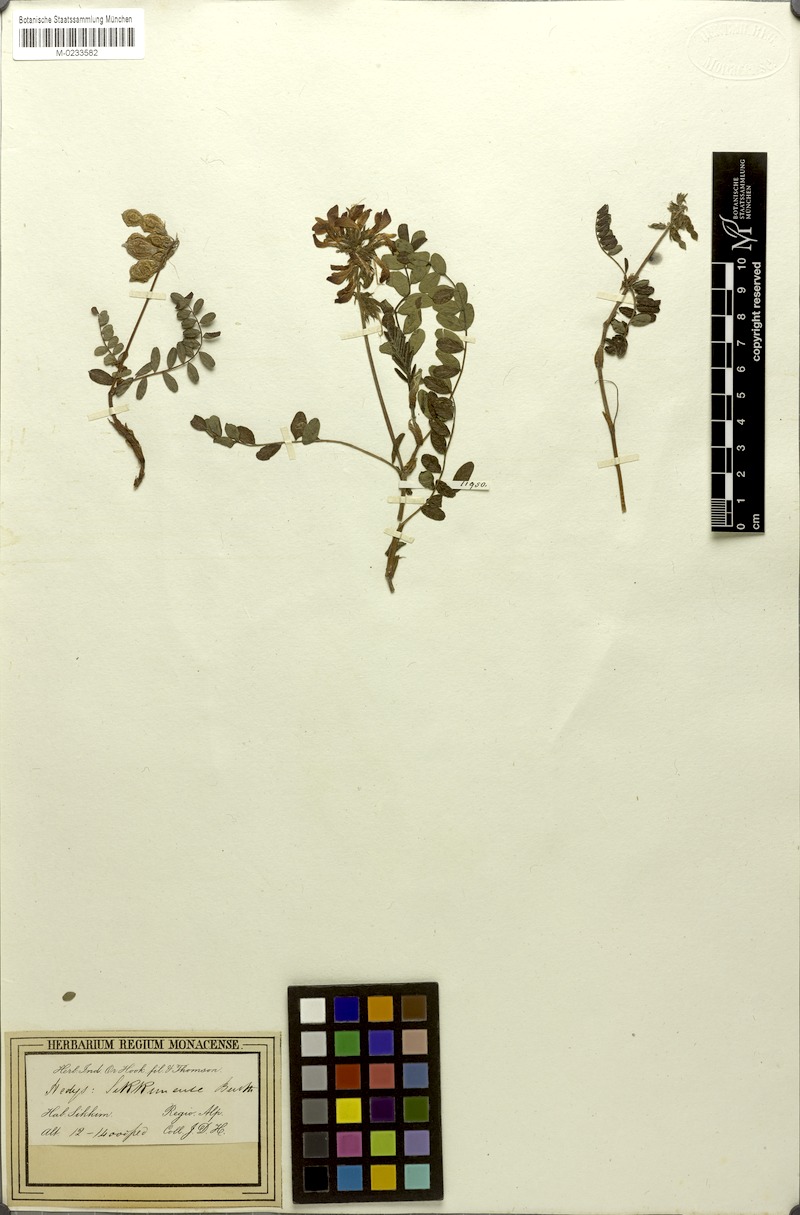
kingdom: Plantae
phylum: Tracheophyta
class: Magnoliopsida
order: Fabales
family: Fabaceae
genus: Hedysarum
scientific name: Hedysarum sikkimense
